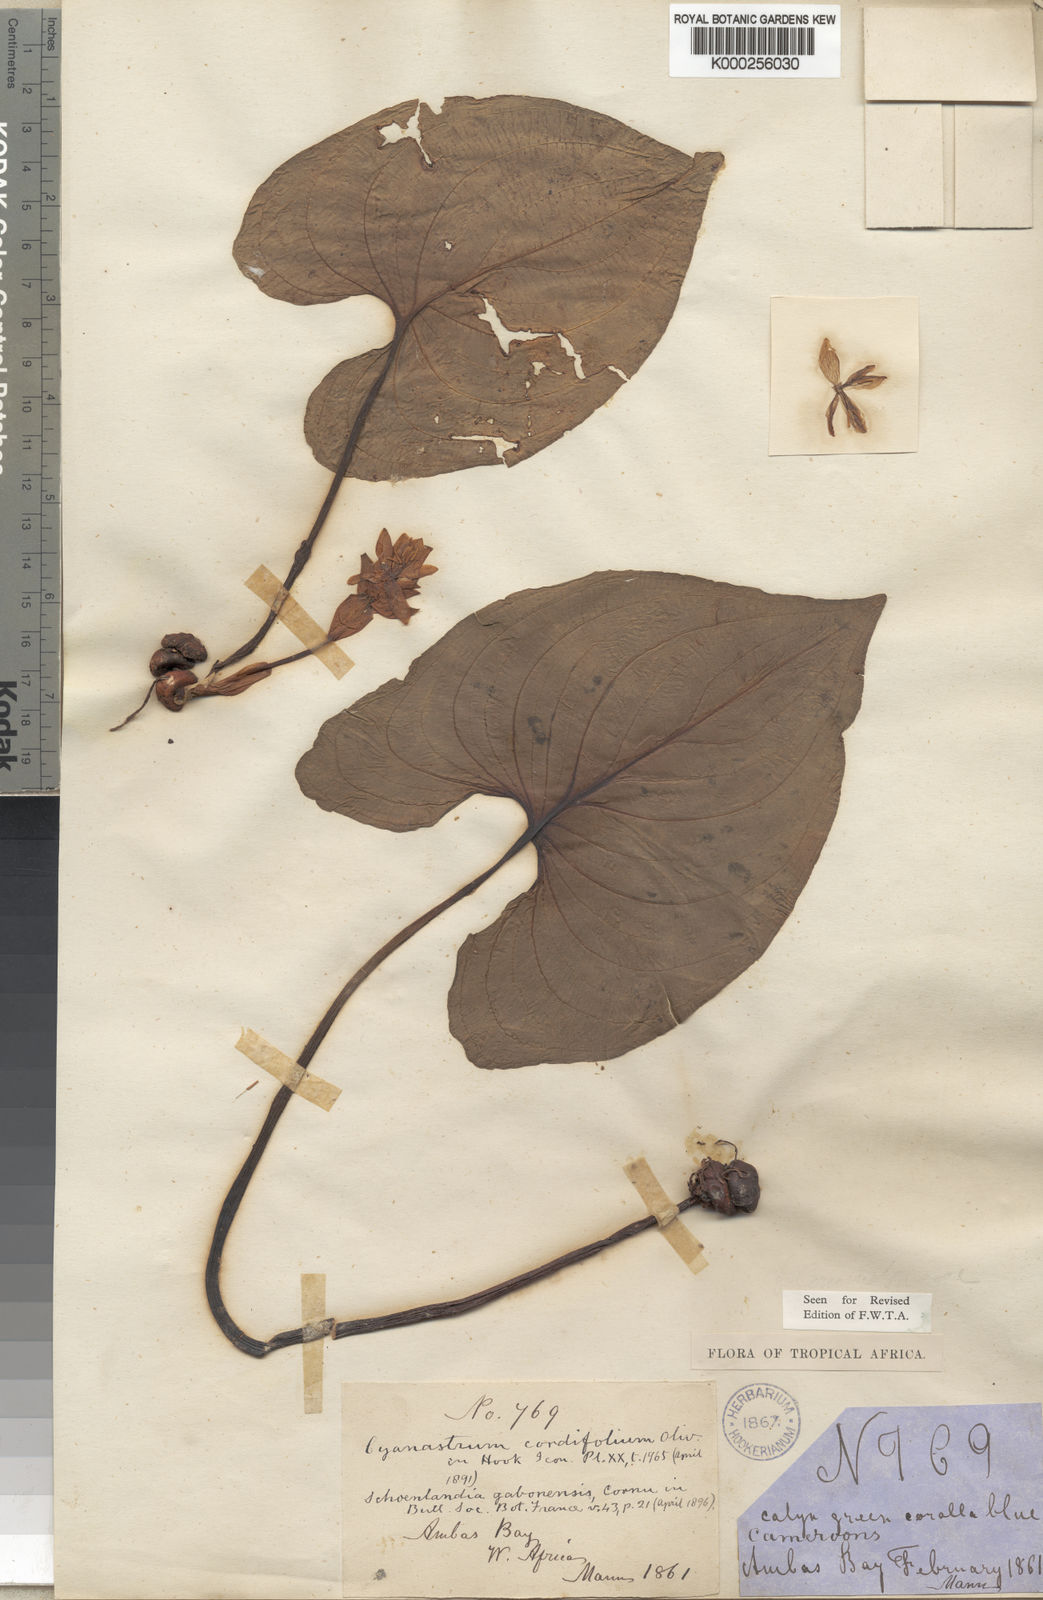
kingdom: Plantae
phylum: Tracheophyta
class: Liliopsida
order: Asparagales
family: Tecophilaeaceae
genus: Cyanastrum
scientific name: Cyanastrum cordifolium
